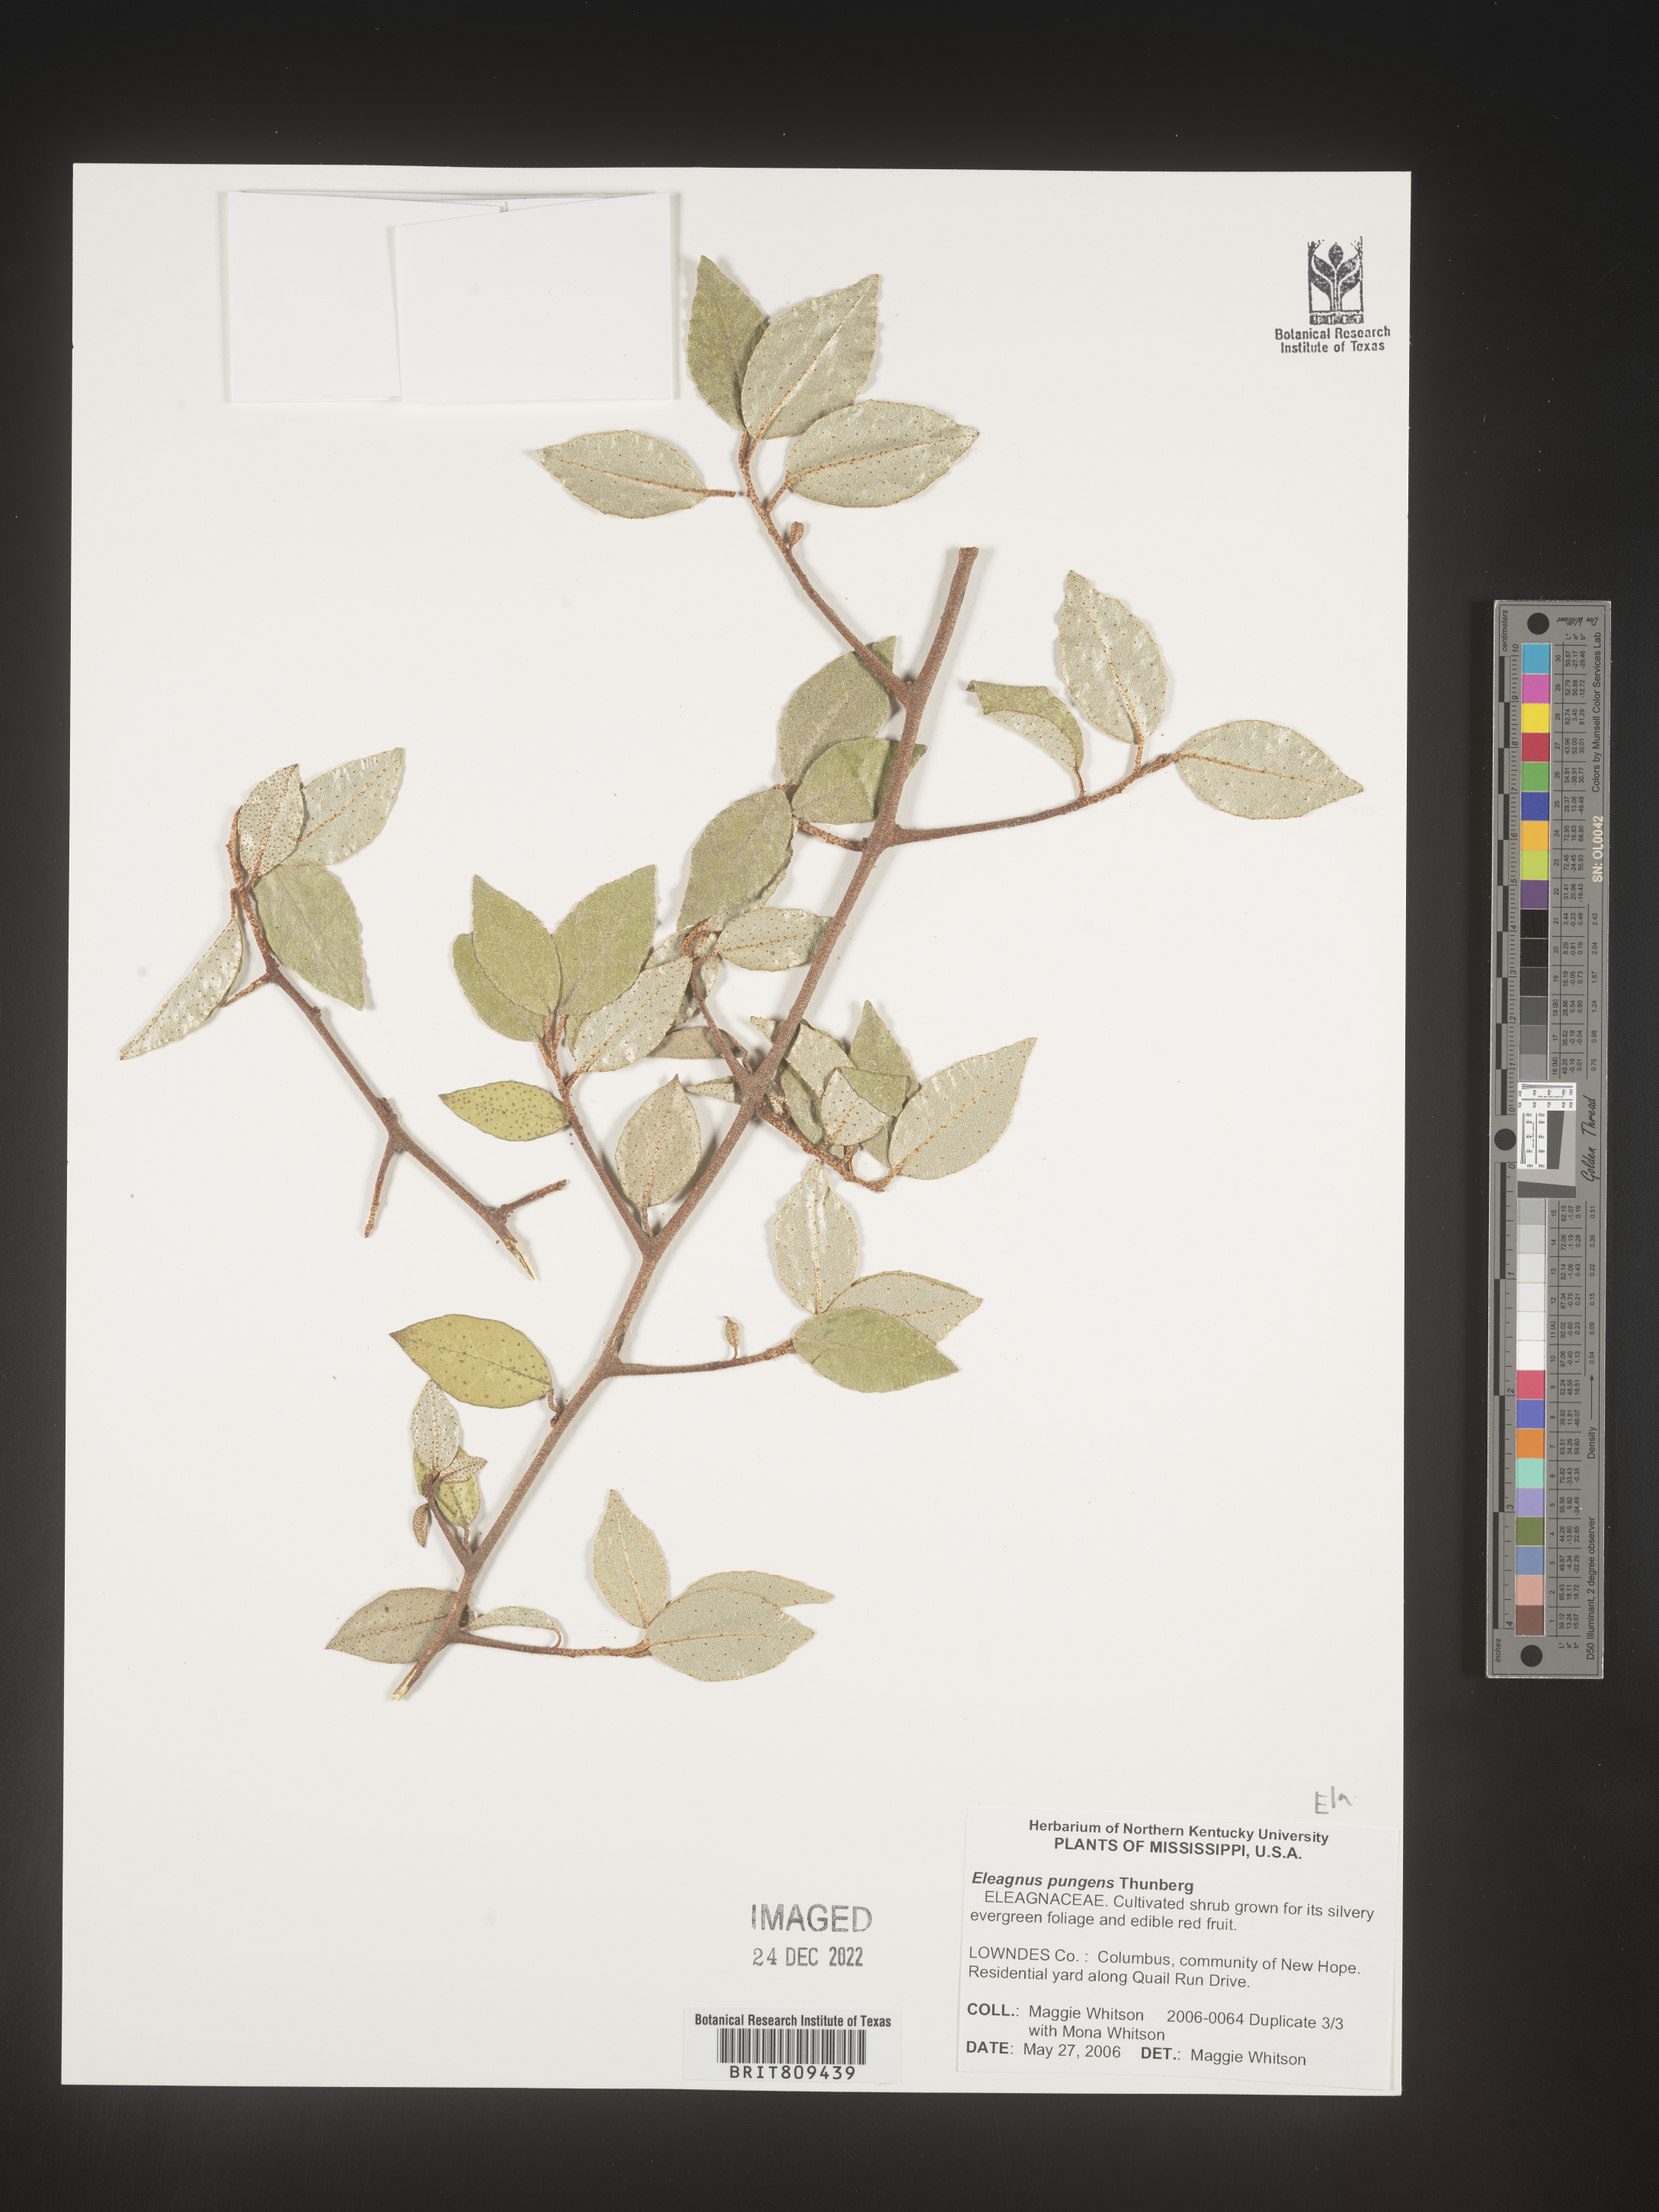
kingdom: Plantae
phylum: Tracheophyta
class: Magnoliopsida
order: Rosales
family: Elaeagnaceae
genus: Elaeagnus
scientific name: Elaeagnus
